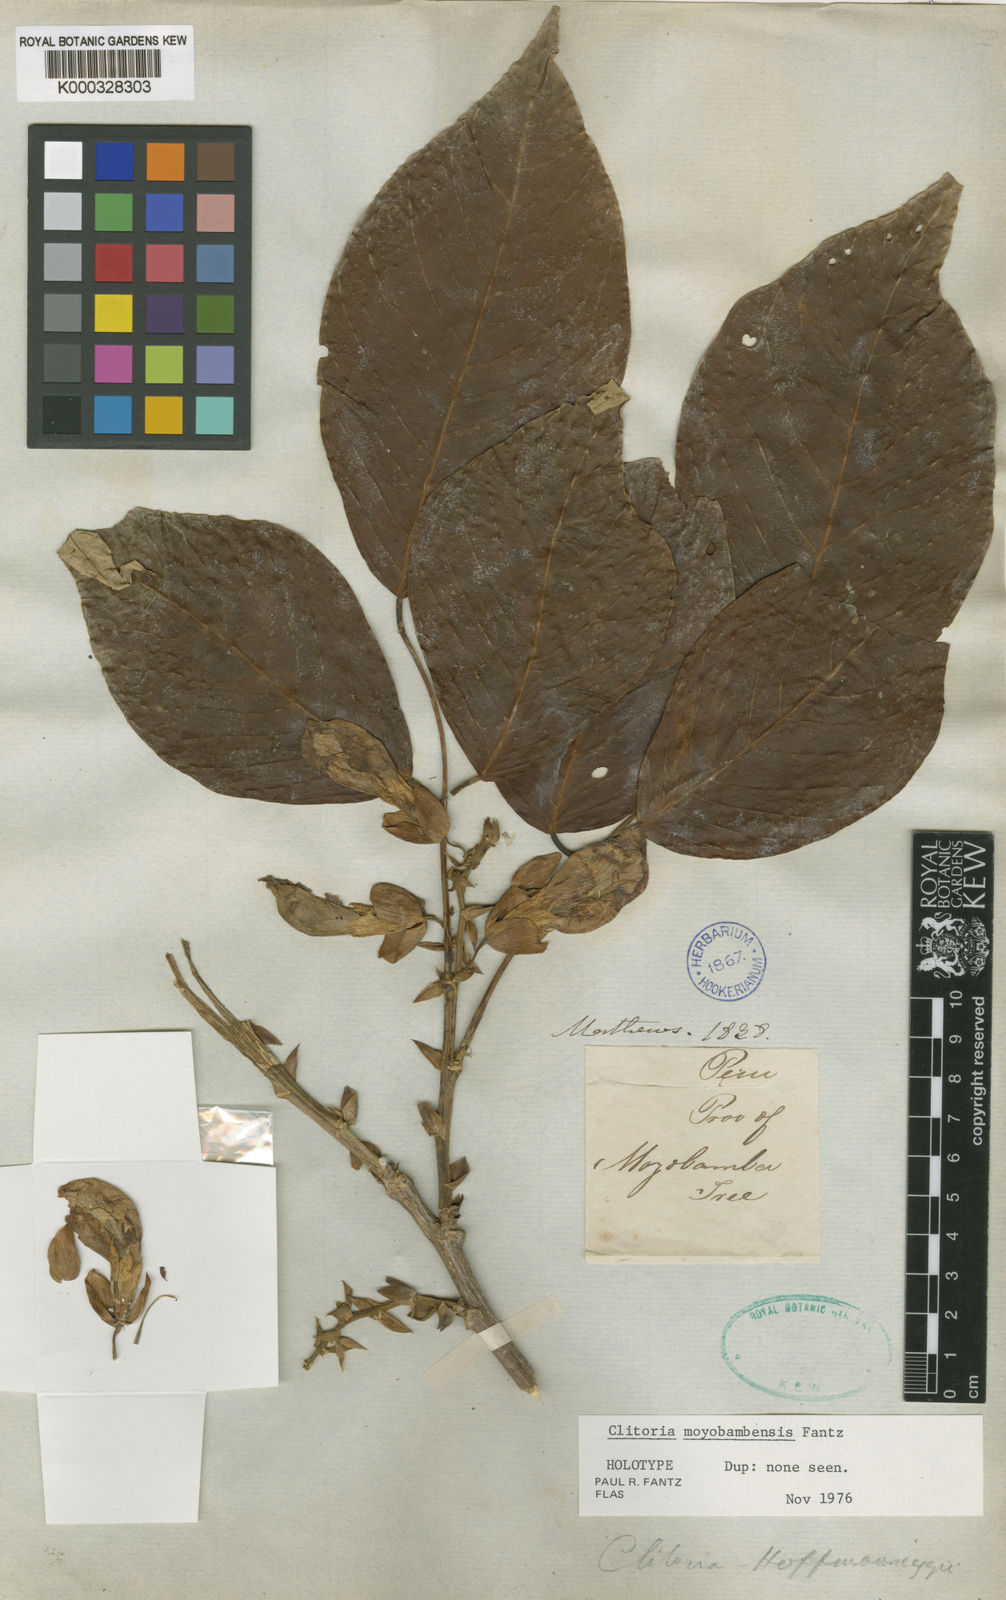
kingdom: Plantae
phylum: Tracheophyta
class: Magnoliopsida
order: Fabales
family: Fabaceae
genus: Clitoria
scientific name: Clitoria moyobambensis
